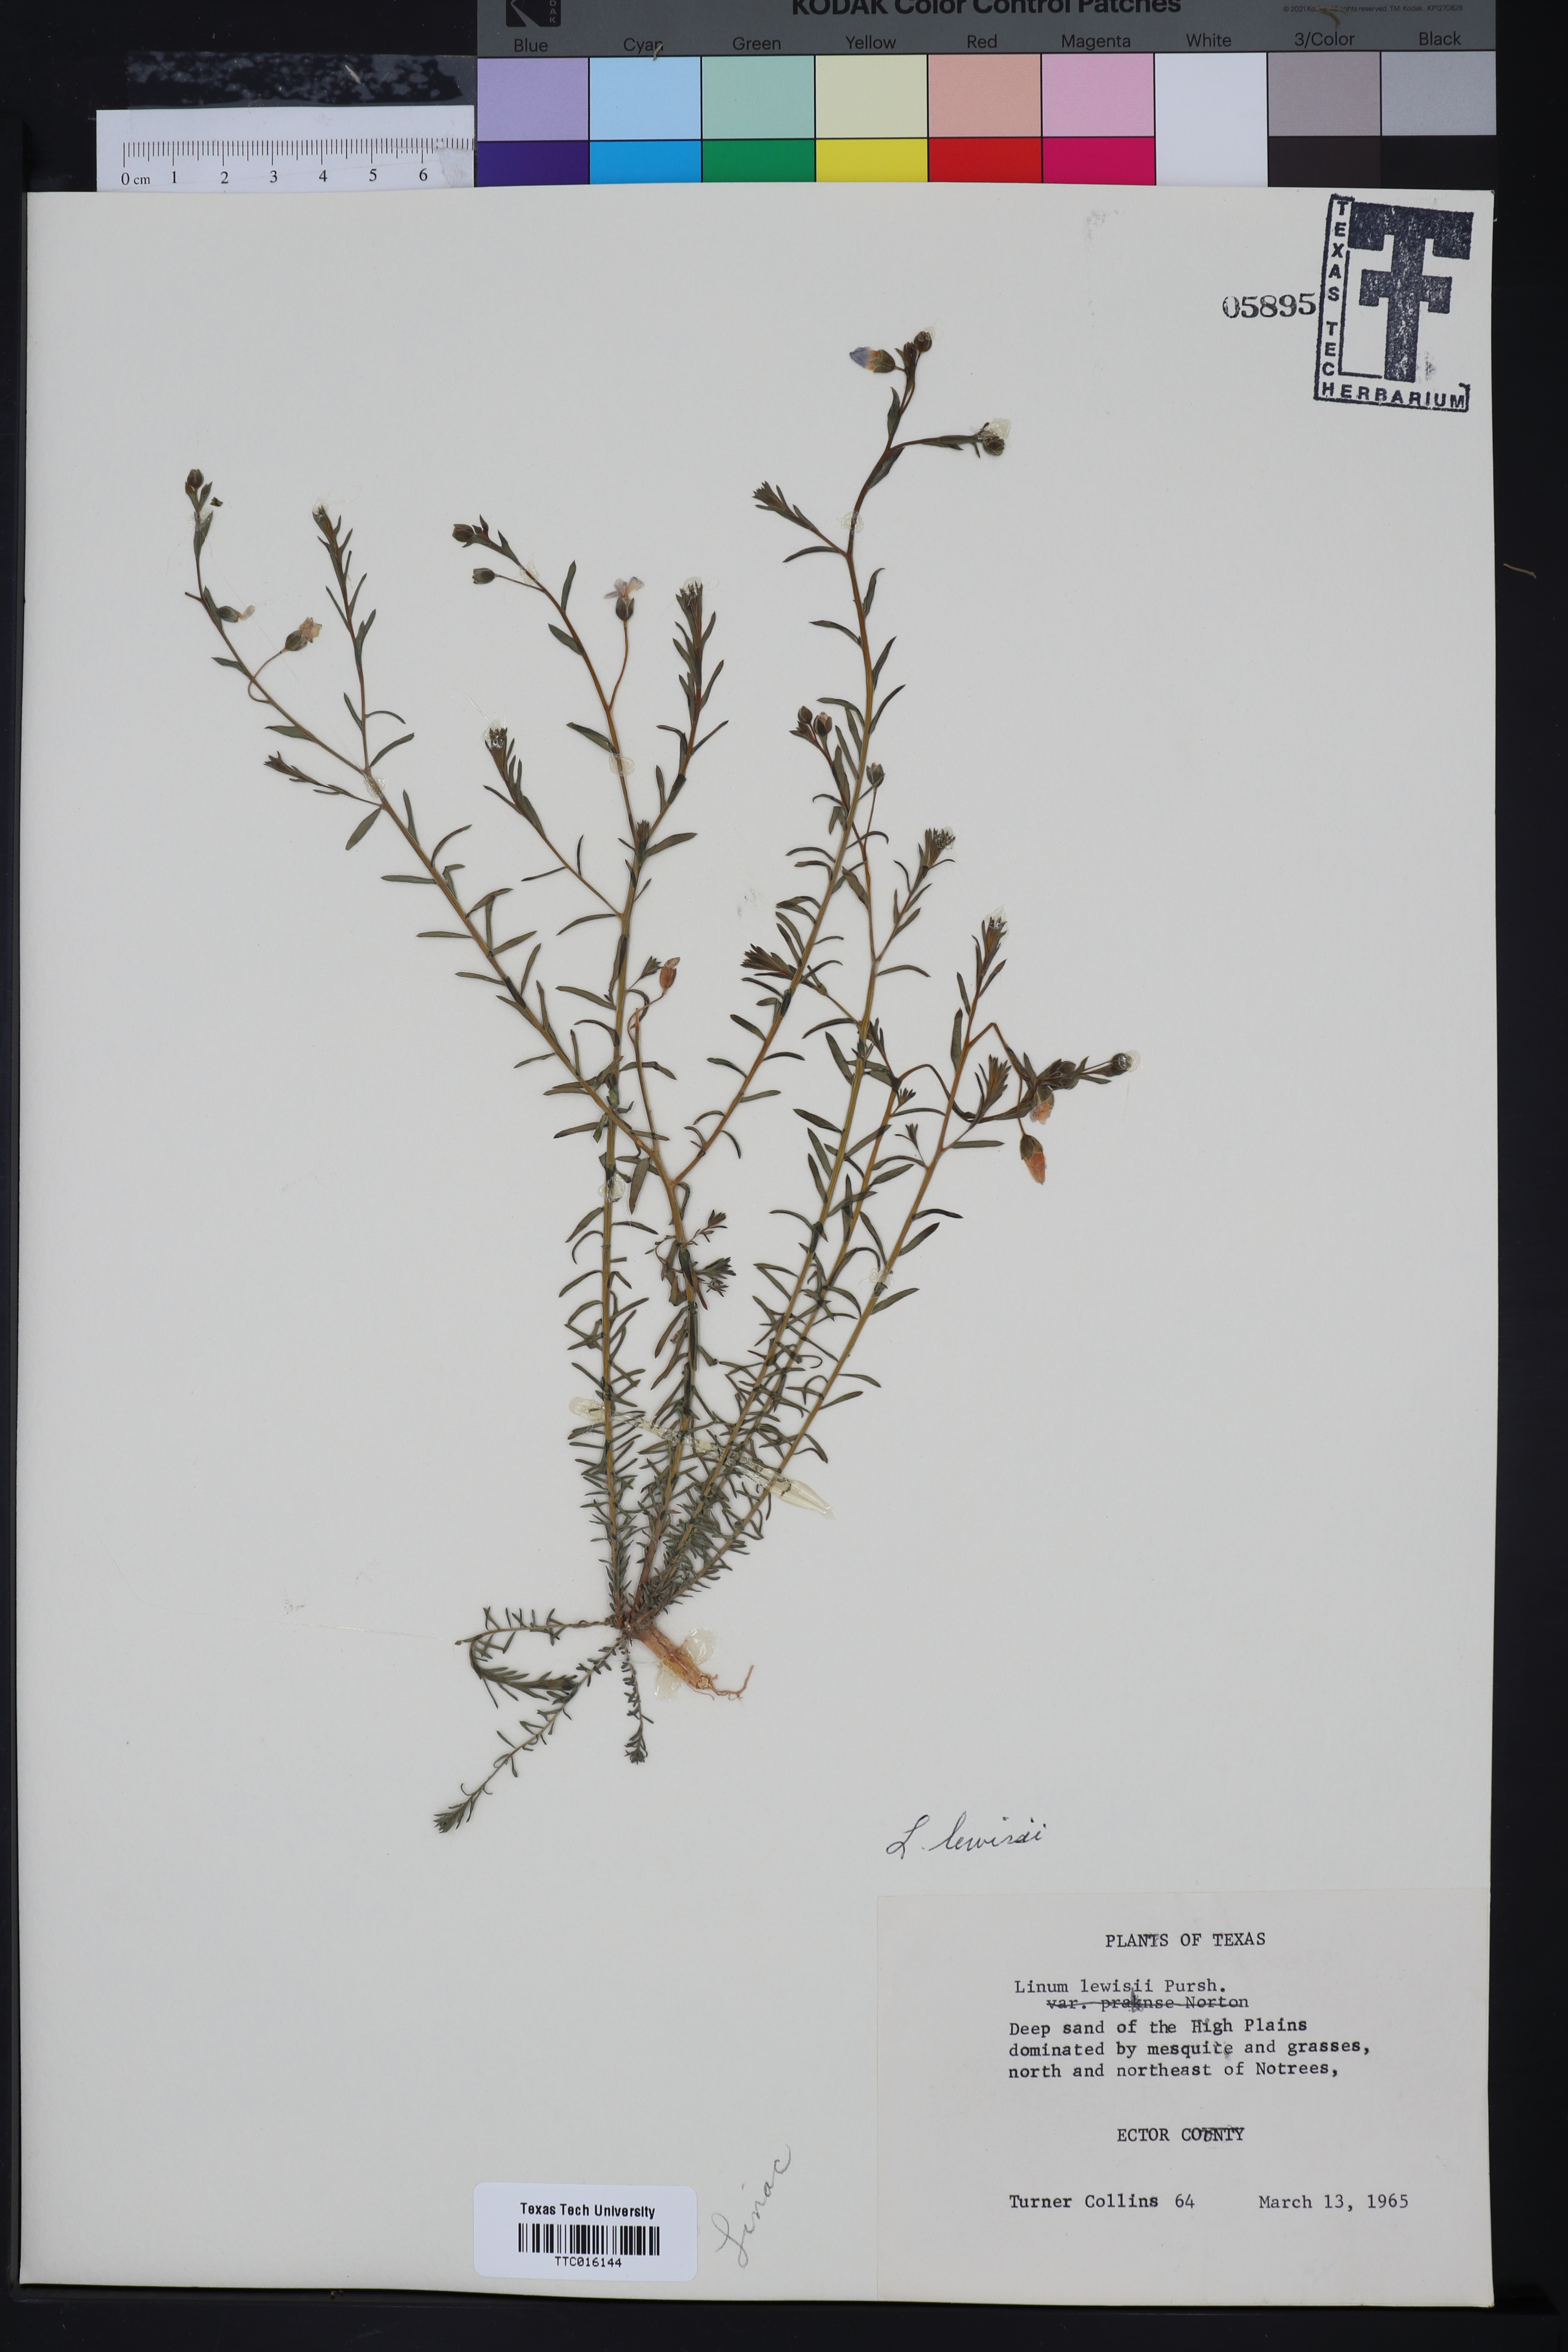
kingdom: Plantae
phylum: Tracheophyta
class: Magnoliopsida
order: Malpighiales
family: Linaceae
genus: Linum
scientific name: Linum lewisii
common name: Prairie flax
